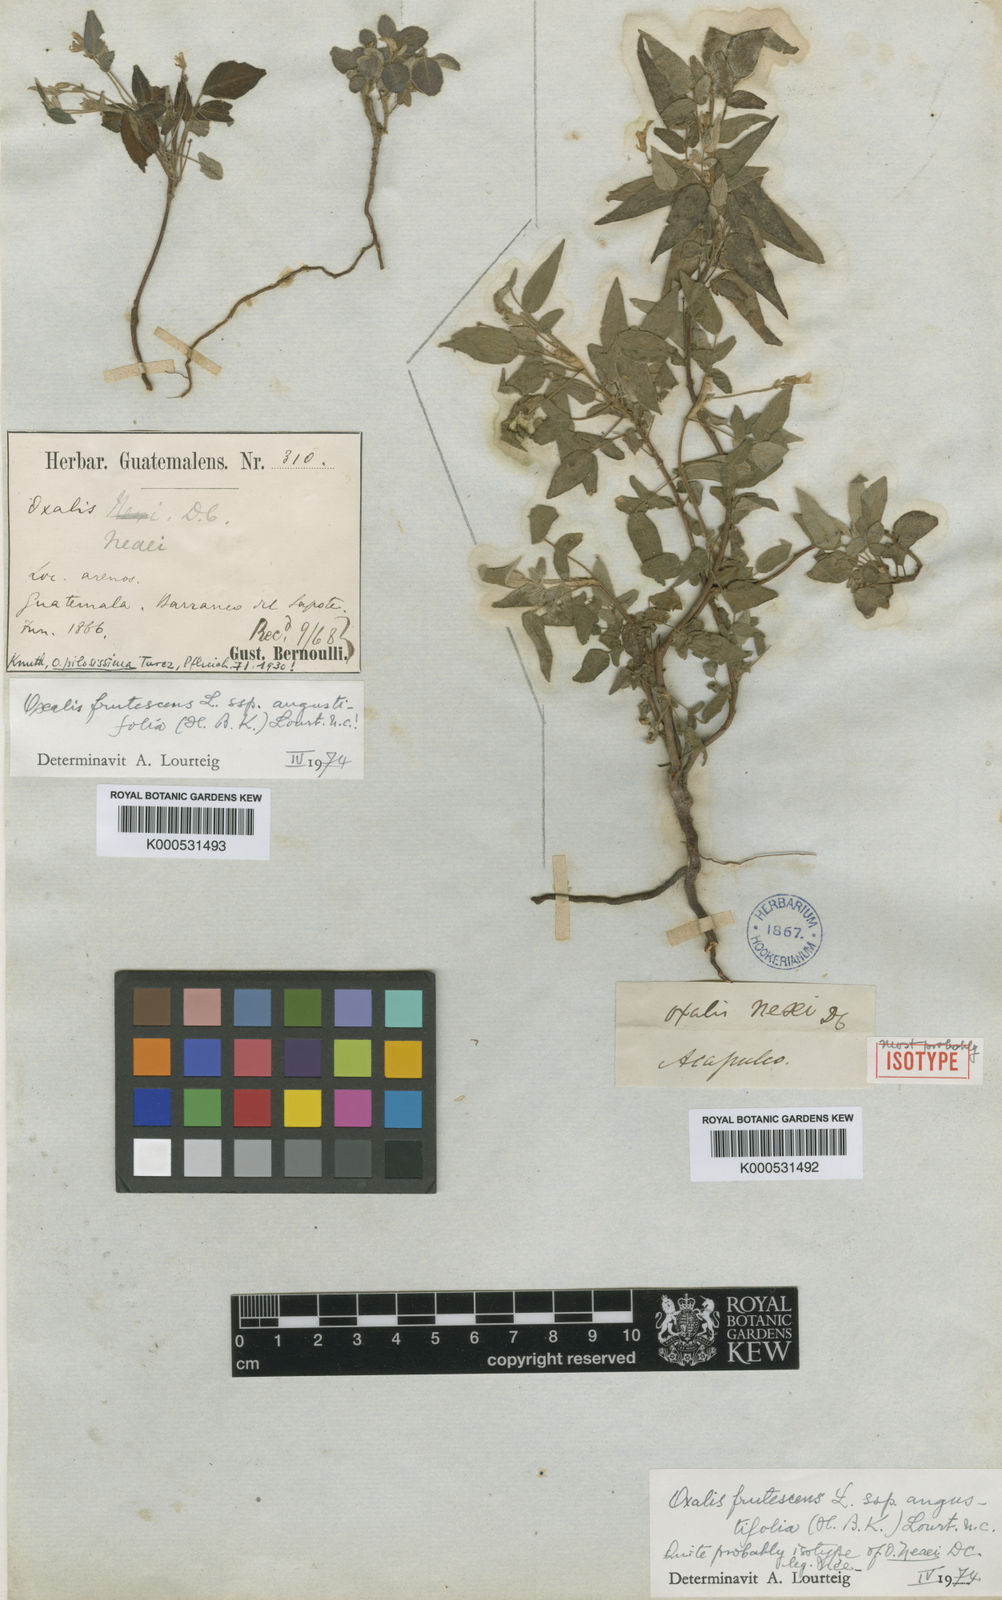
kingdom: Plantae
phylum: Tracheophyta
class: Magnoliopsida
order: Oxalidales
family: Oxalidaceae
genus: Oxalis
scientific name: Oxalis frutescens
